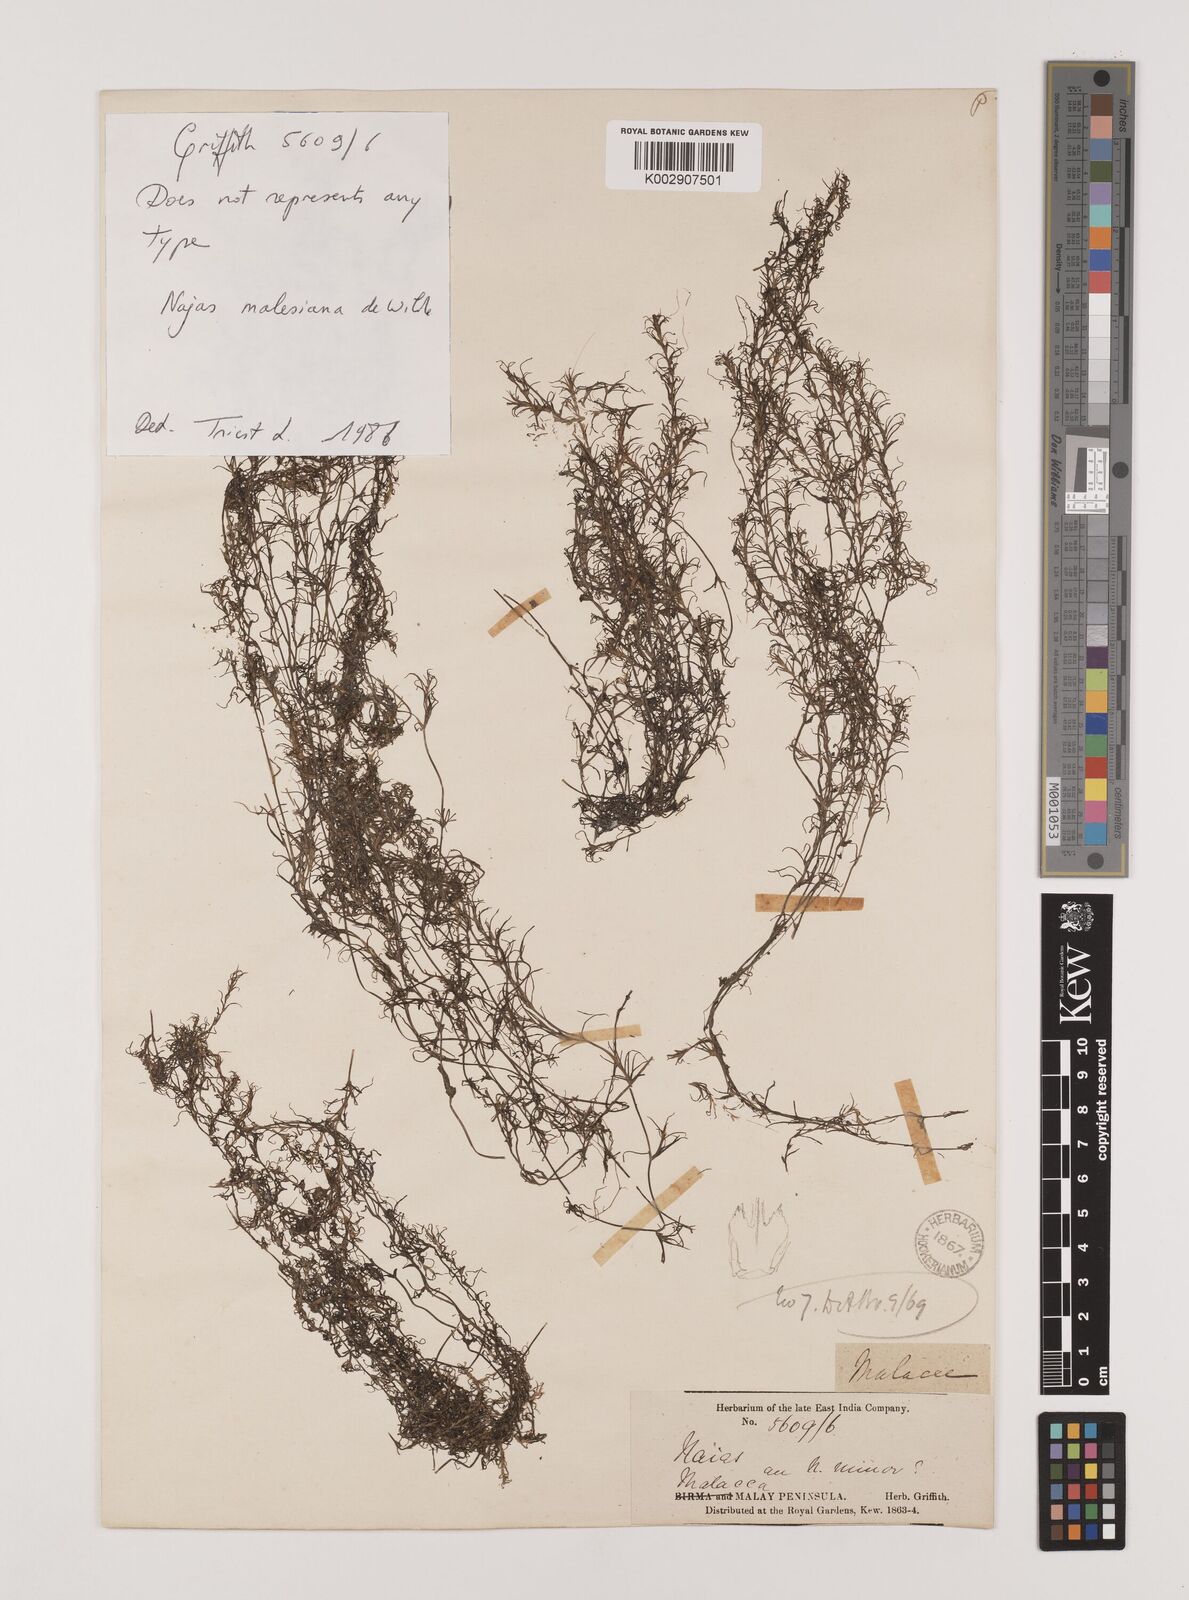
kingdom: Plantae
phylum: Tracheophyta
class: Liliopsida
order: Alismatales
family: Hydrocharitaceae
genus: Najas
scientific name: Najas malesiana
